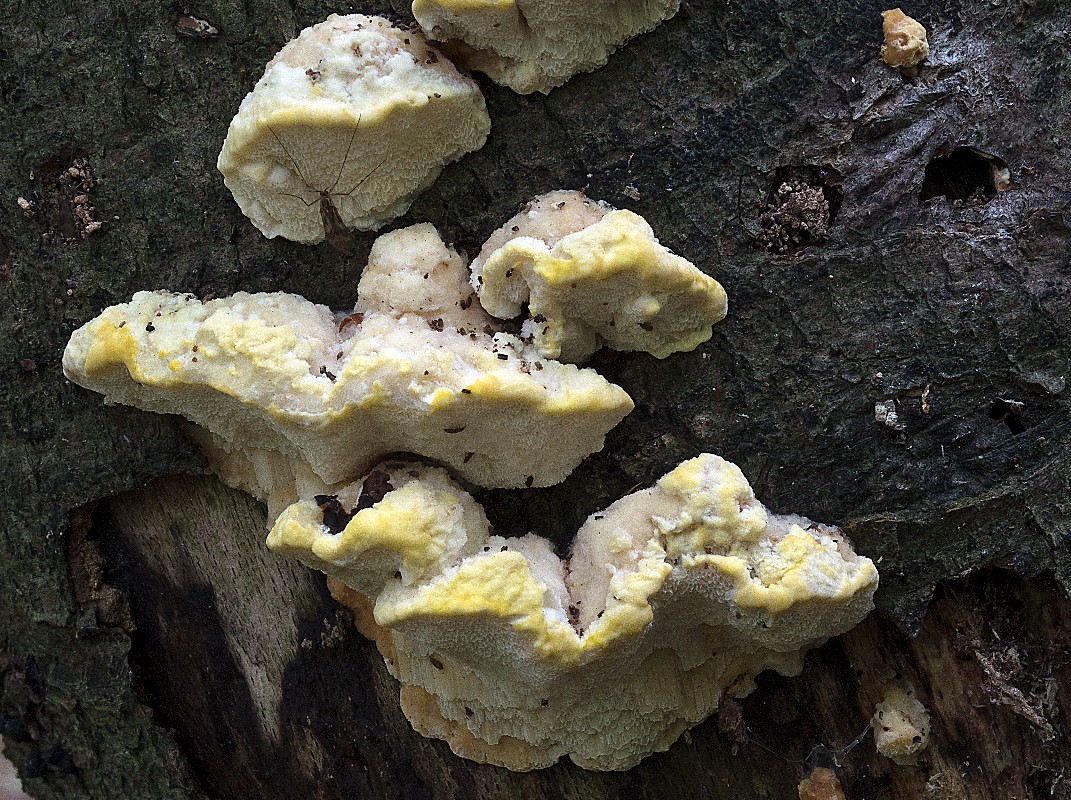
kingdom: Fungi
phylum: Basidiomycota
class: Agaricomycetes
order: Polyporales
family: Steccherinaceae
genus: Antrodiella
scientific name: Antrodiella serpula
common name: gulrandet elastikporesvamp
